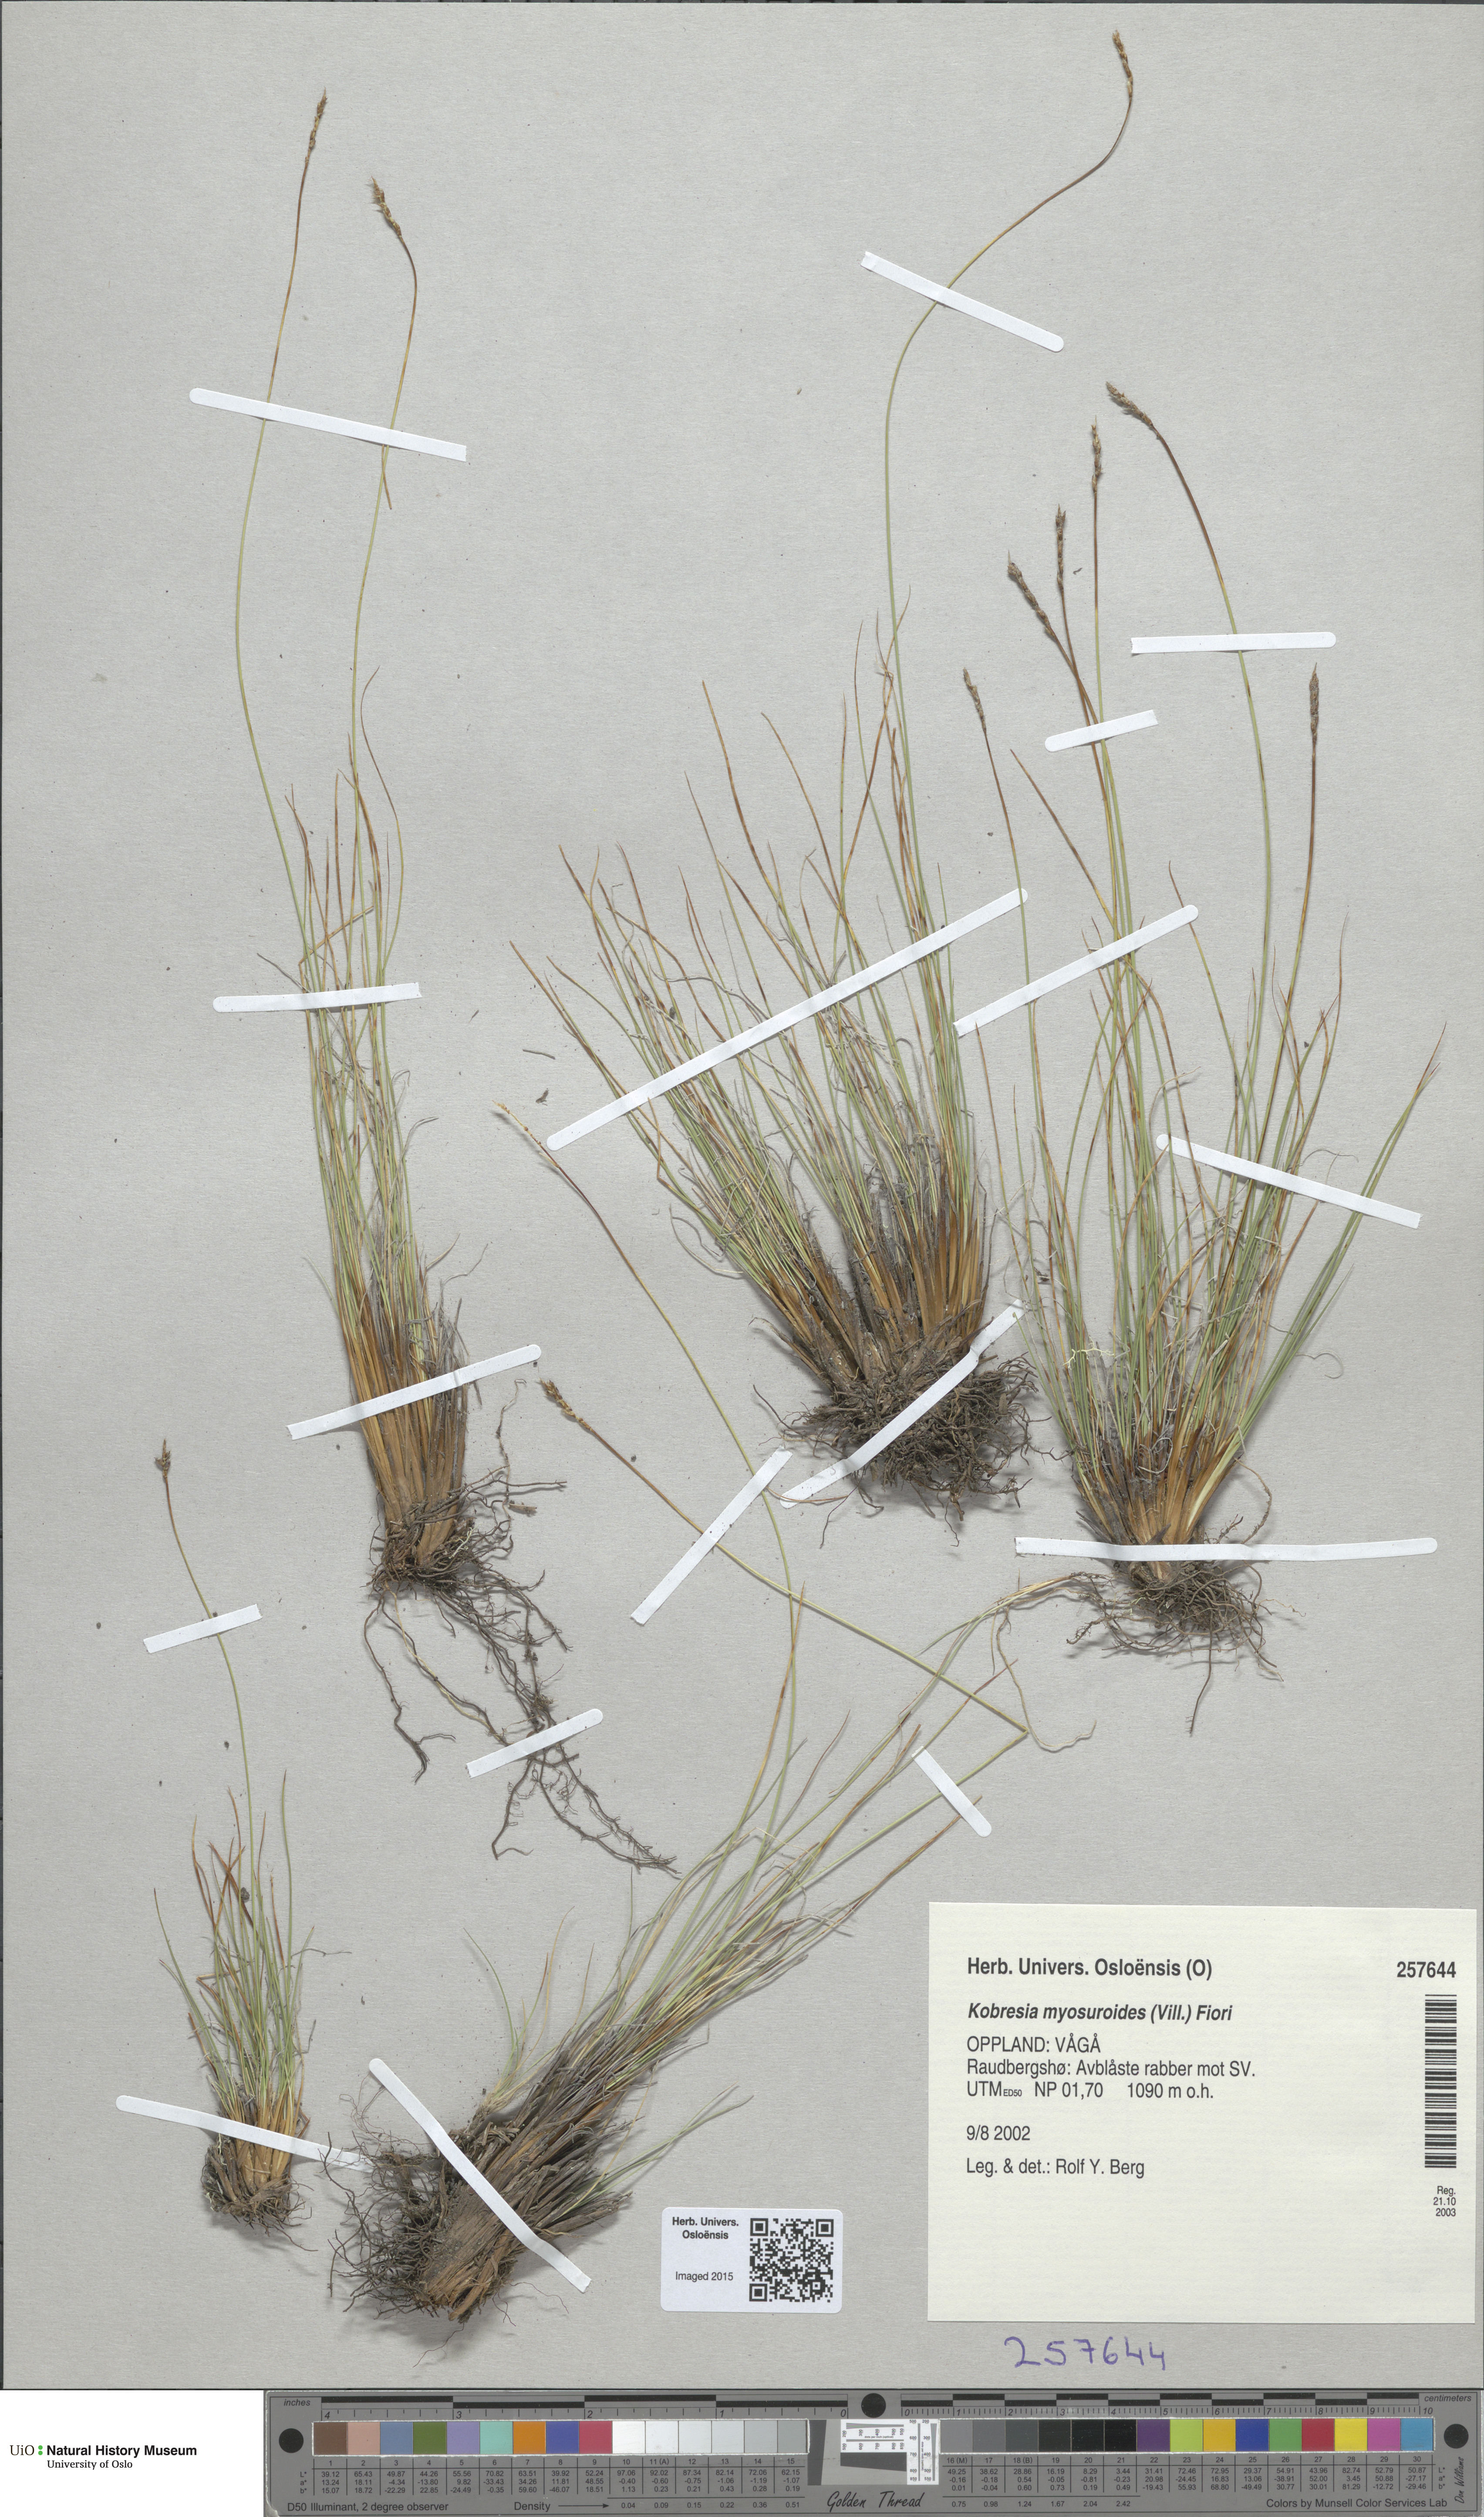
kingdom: Plantae
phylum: Tracheophyta
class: Liliopsida
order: Poales
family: Cyperaceae
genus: Carex
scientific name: Carex myosuroides
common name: Bellard's bog sedge
